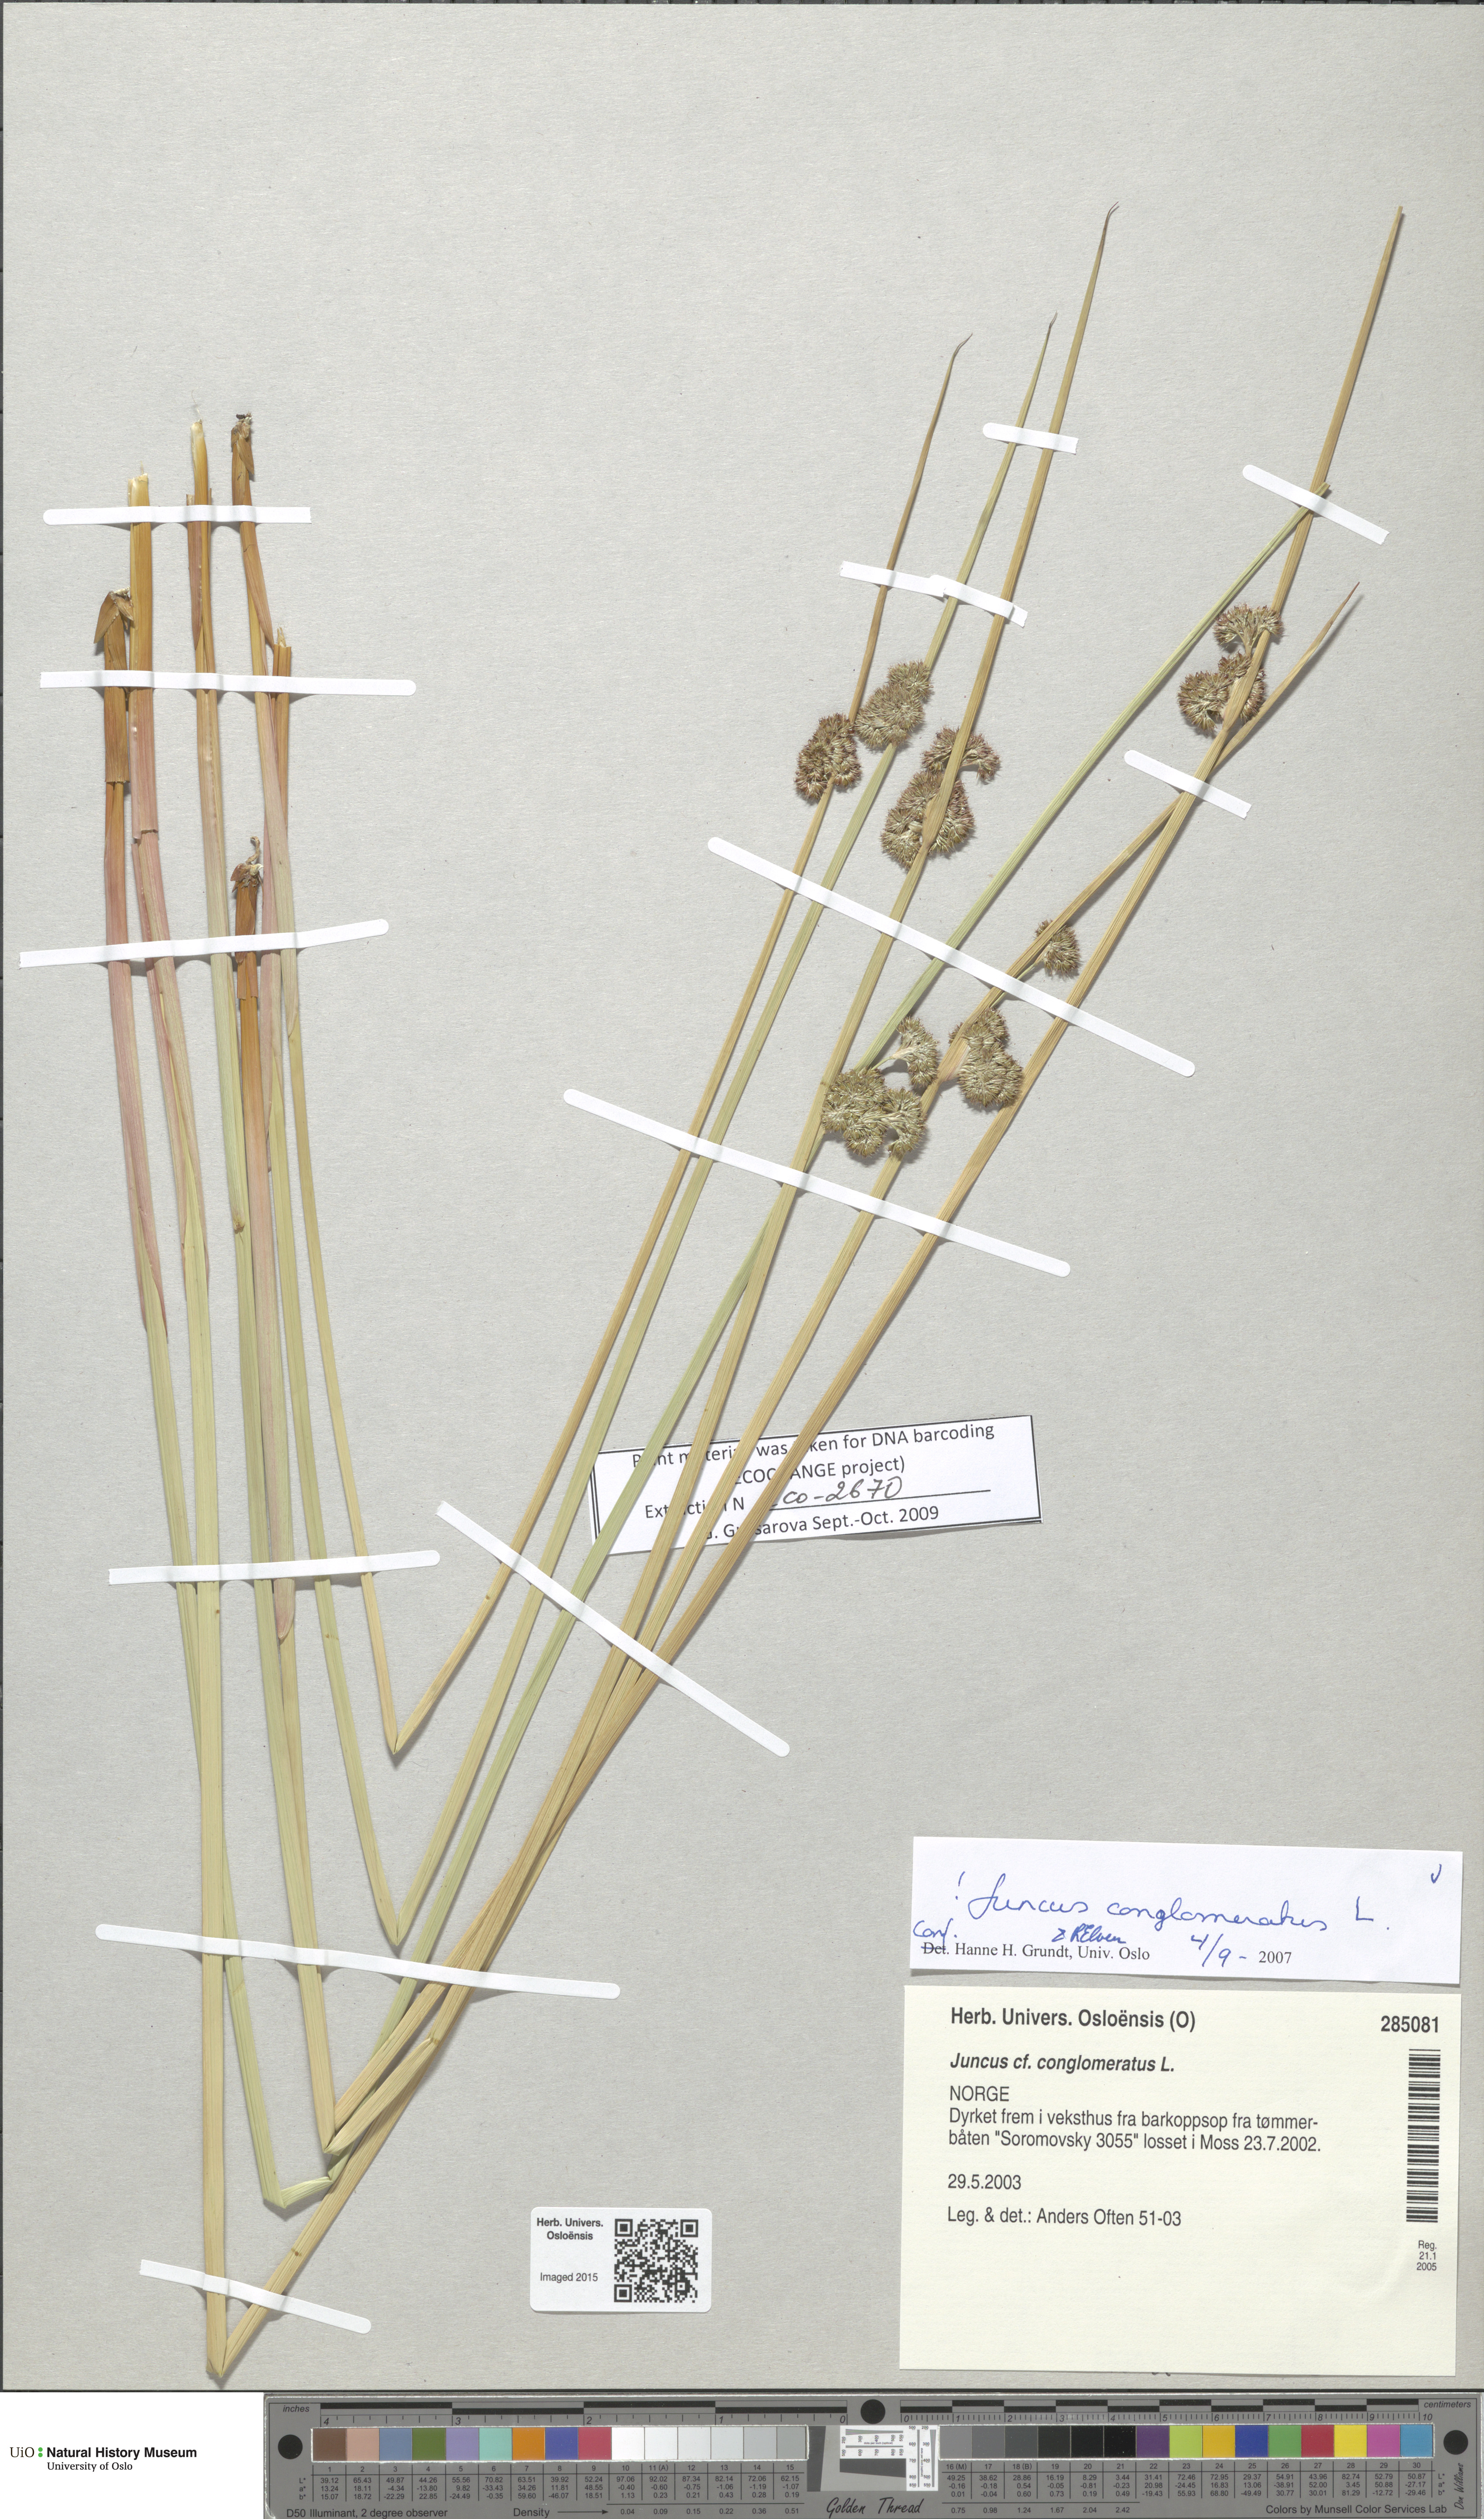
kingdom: Plantae
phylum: Tracheophyta
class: Liliopsida
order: Poales
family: Juncaceae
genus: Juncus
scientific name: Juncus conglomeratus
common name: Compact rush
